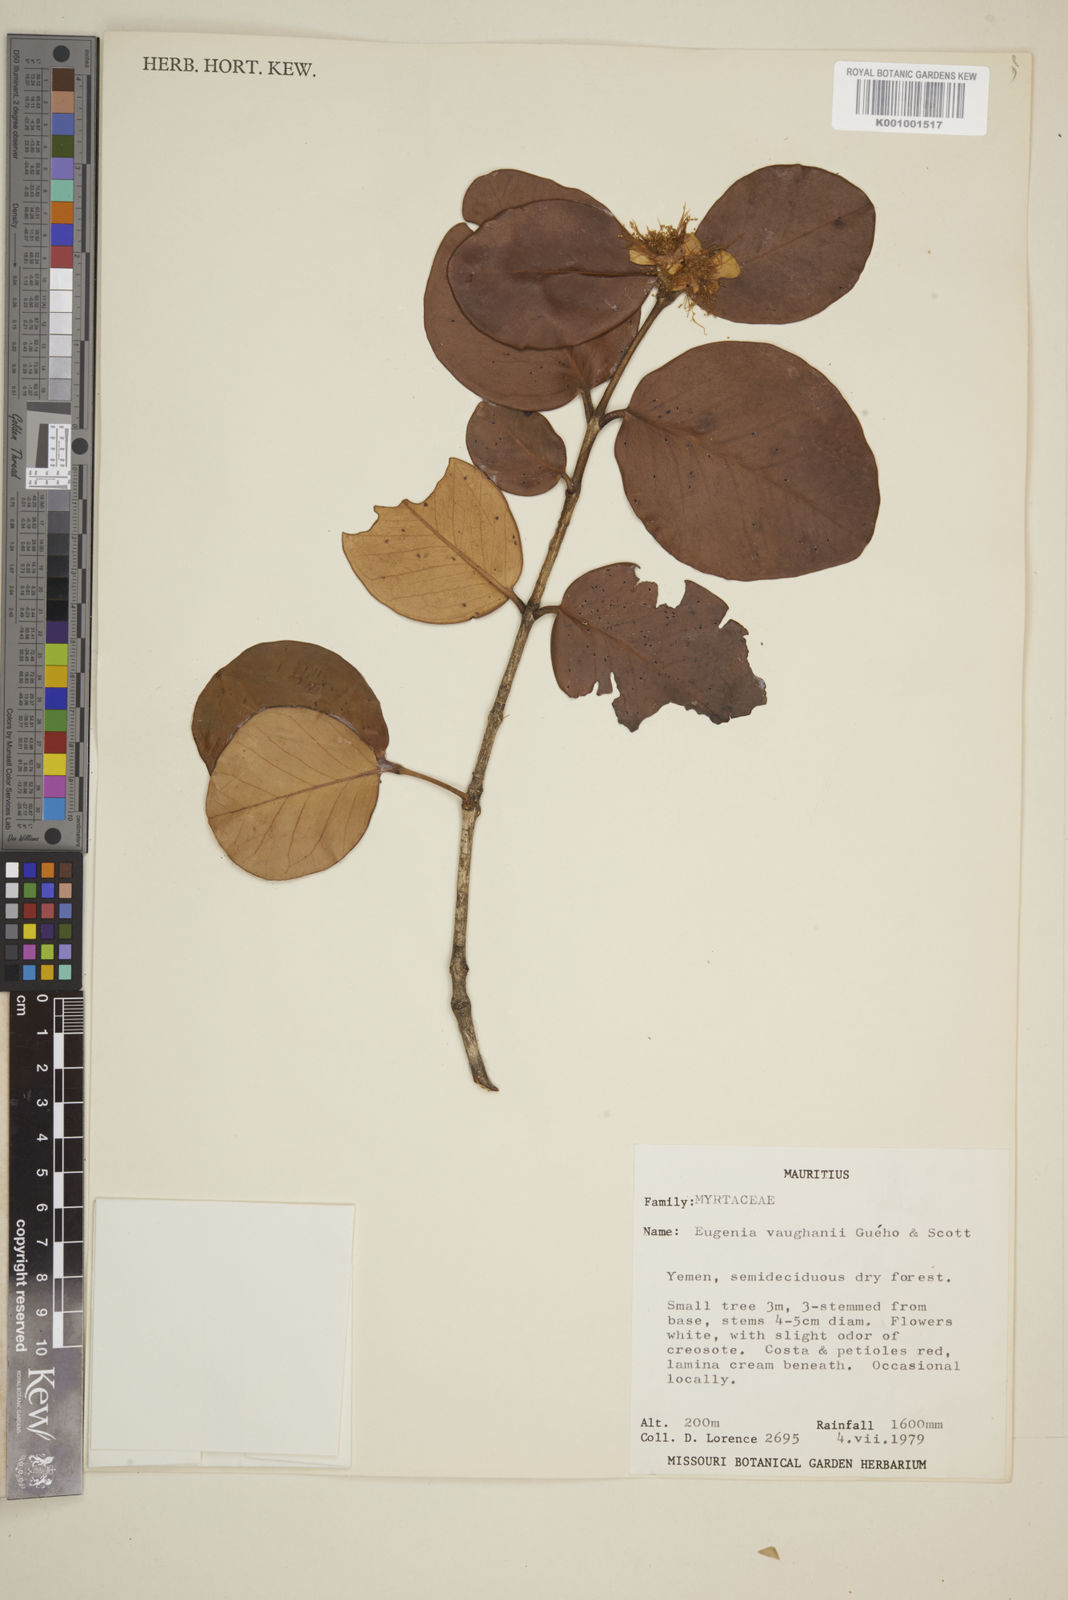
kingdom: Plantae
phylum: Tracheophyta
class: Magnoliopsida
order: Myrtales
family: Myrtaceae
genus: Eugenia
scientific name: Eugenia
